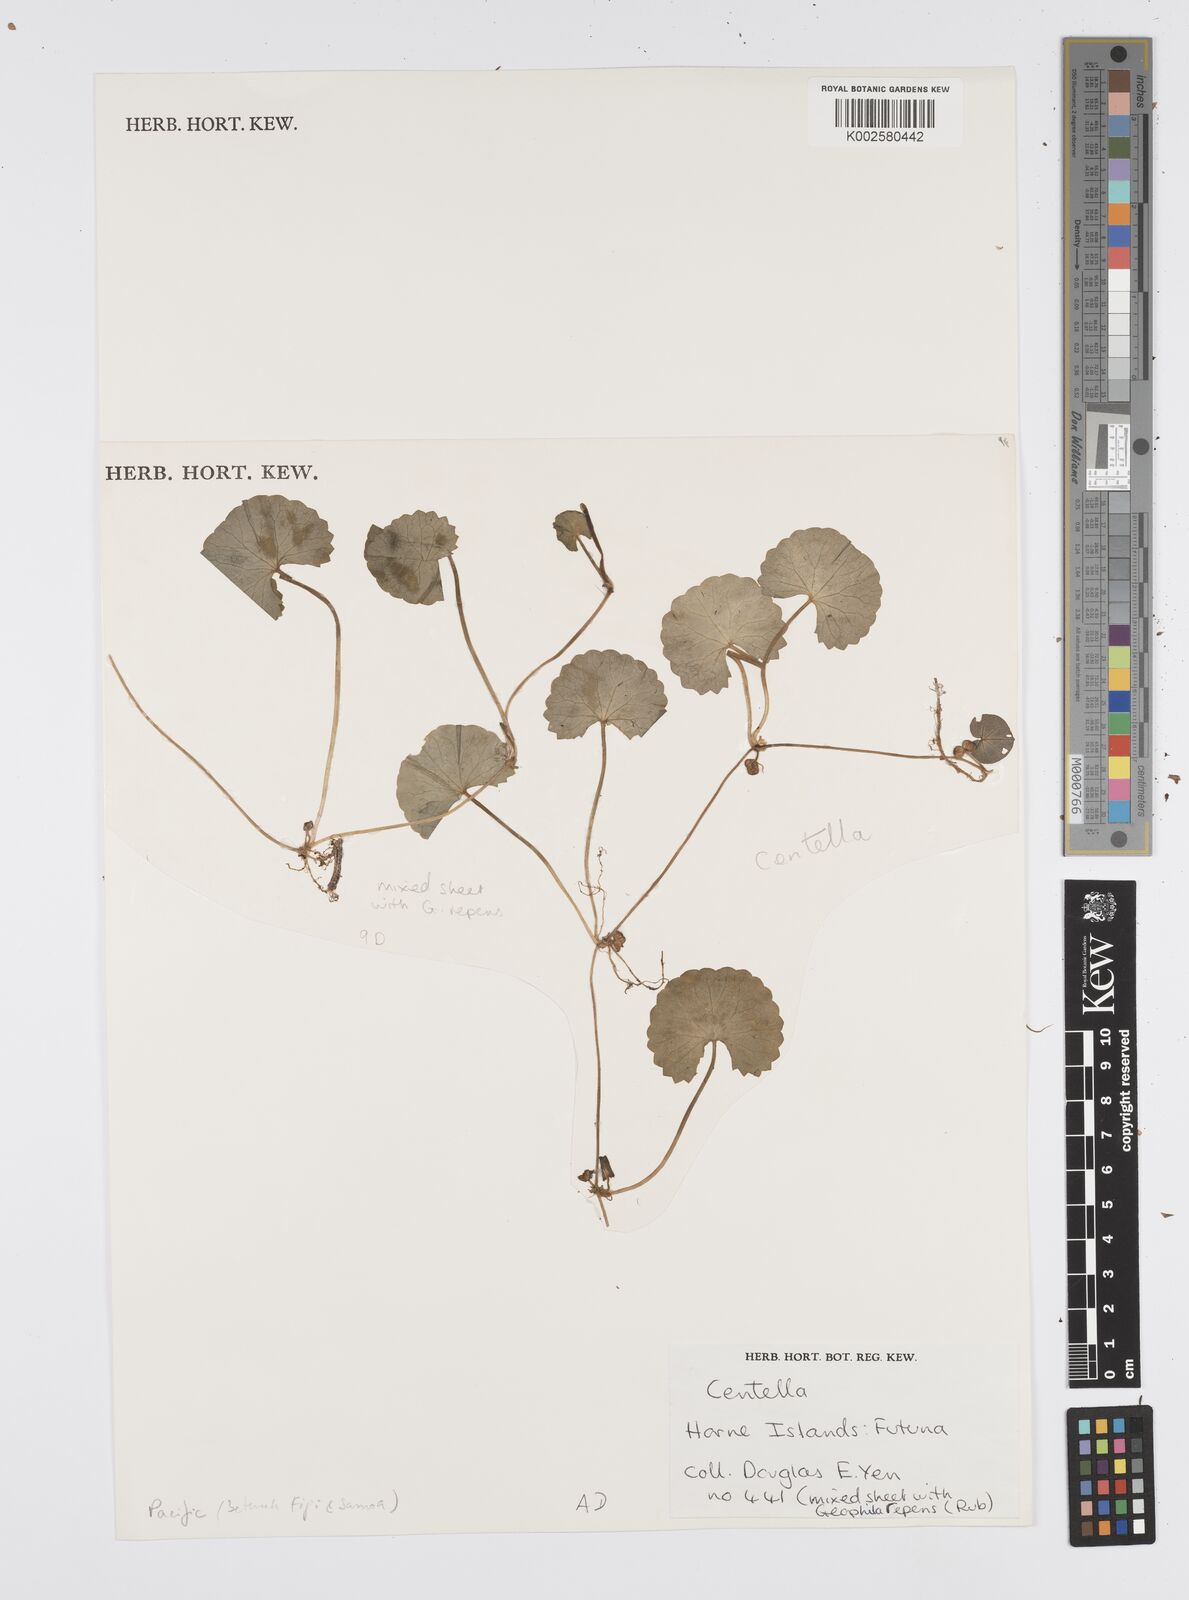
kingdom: Plantae
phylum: Tracheophyta
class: Magnoliopsida
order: Apiales
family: Apiaceae
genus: Centella
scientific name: Centella asiatica
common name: Spadeleaf
